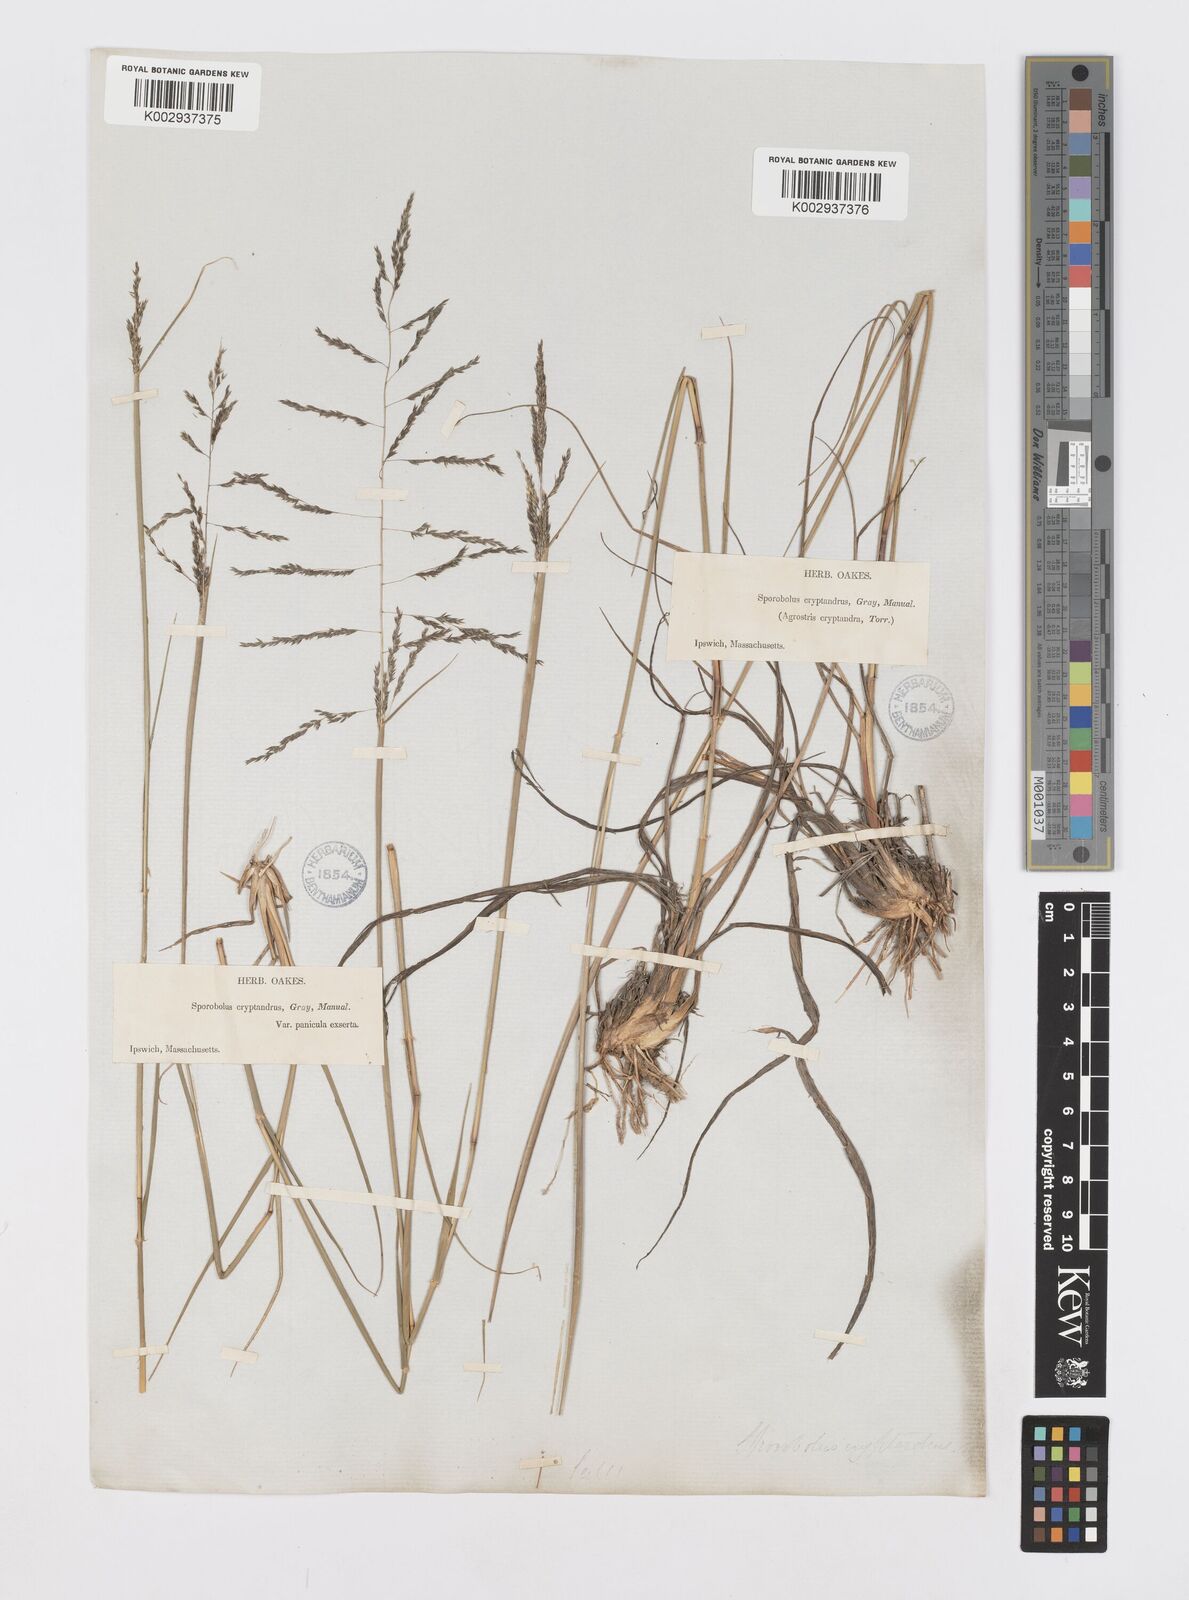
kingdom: Plantae
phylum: Tracheophyta
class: Liliopsida
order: Poales
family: Poaceae
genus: Sporobolus
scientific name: Sporobolus cryptandrus
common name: Sand dropseed
